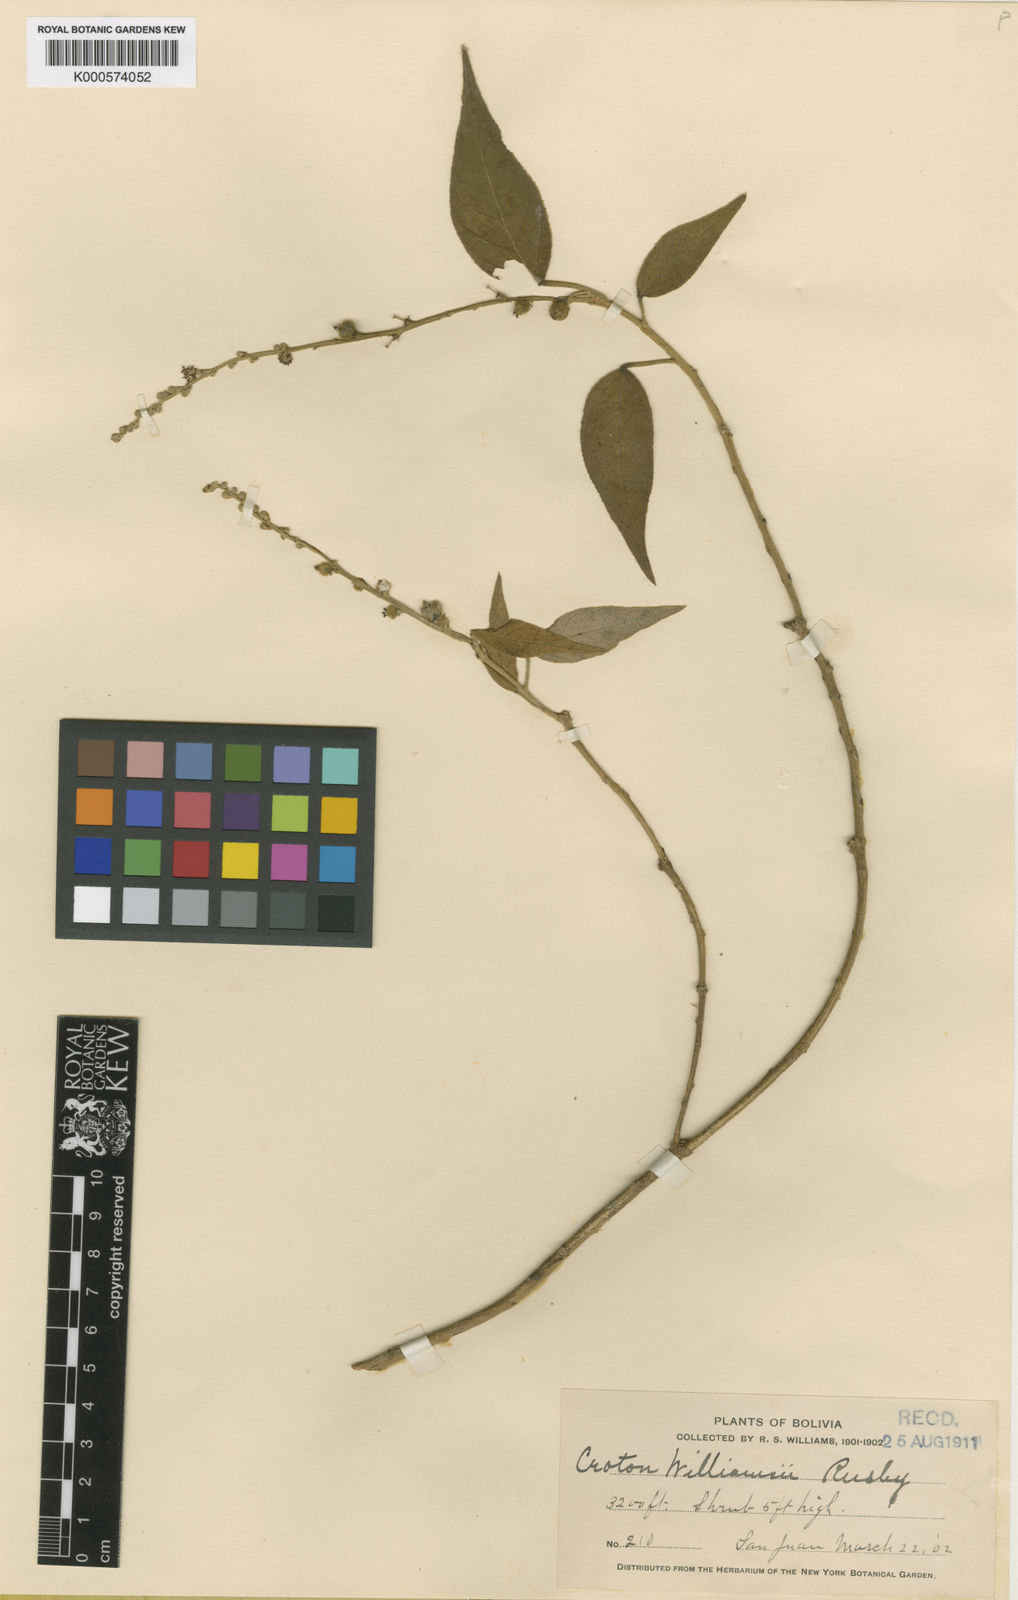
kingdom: Plantae
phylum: Tracheophyta
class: Magnoliopsida
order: Malpighiales
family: Euphorbiaceae
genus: Croton
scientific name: Croton peltophorus
